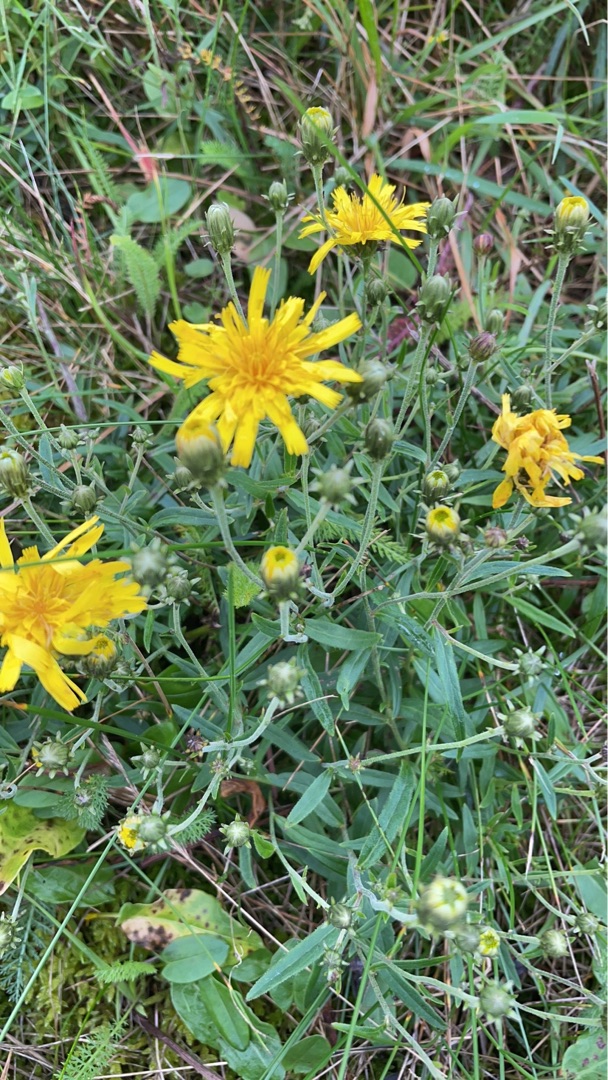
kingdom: Plantae
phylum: Tracheophyta
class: Magnoliopsida
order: Asterales
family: Asteraceae
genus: Hieracium
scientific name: Hieracium umbellatum
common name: Smalbladet høgeurt
